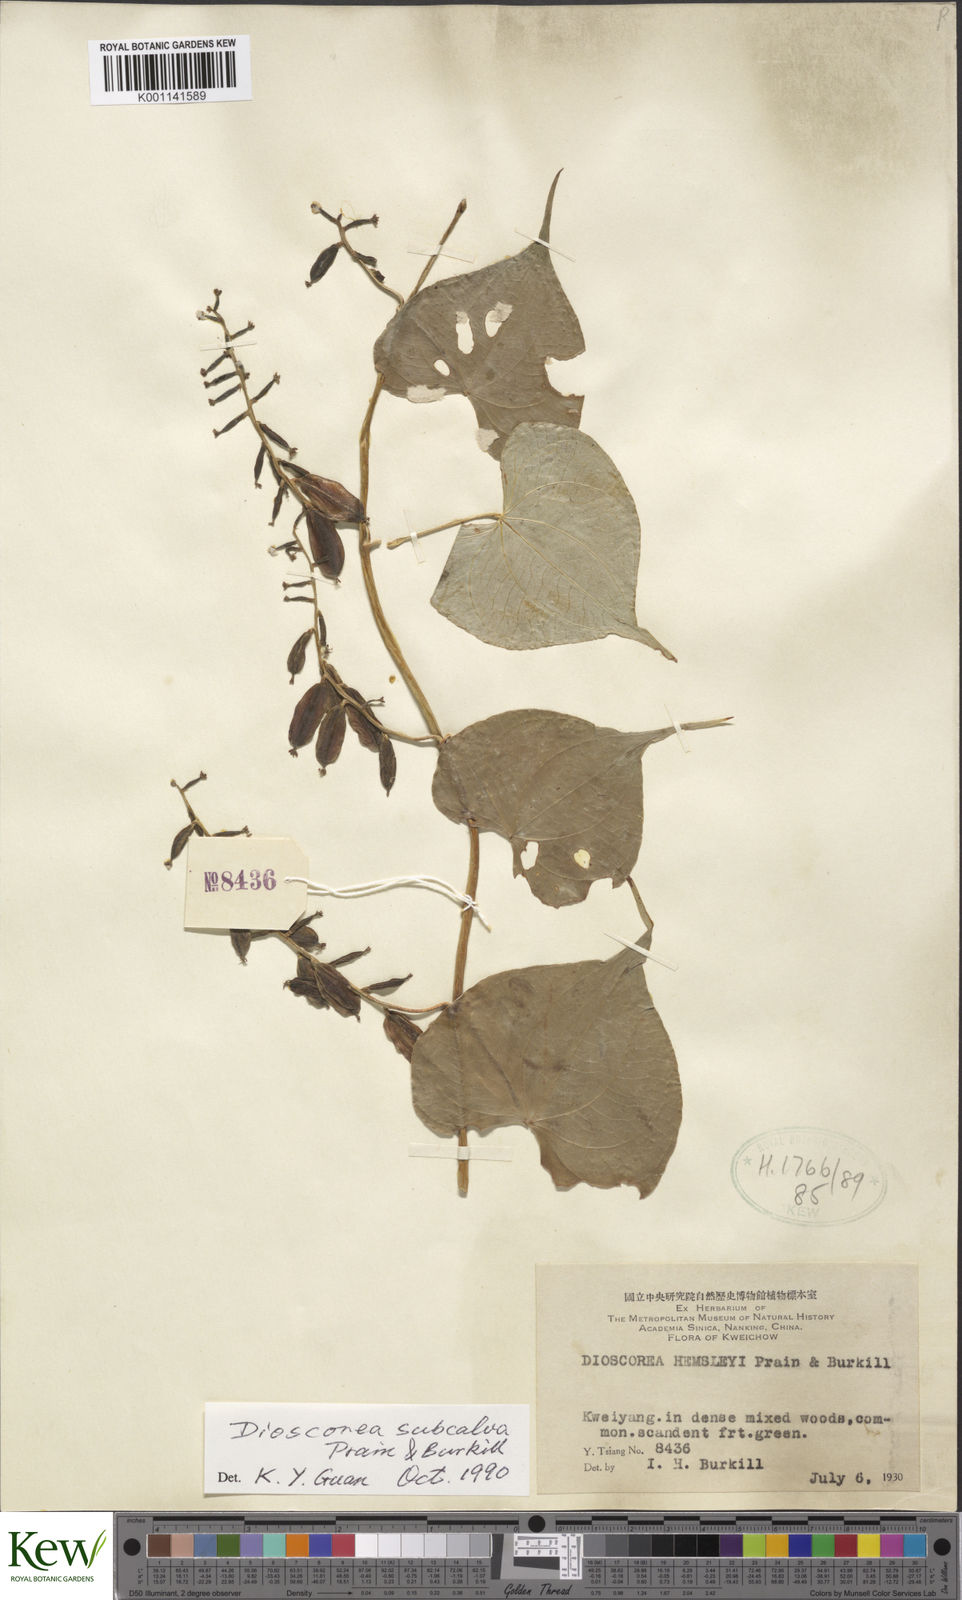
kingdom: Plantae
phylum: Tracheophyta
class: Liliopsida
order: Dioscoreales
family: Dioscoreaceae
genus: Dioscorea
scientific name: Dioscorea subcalva
